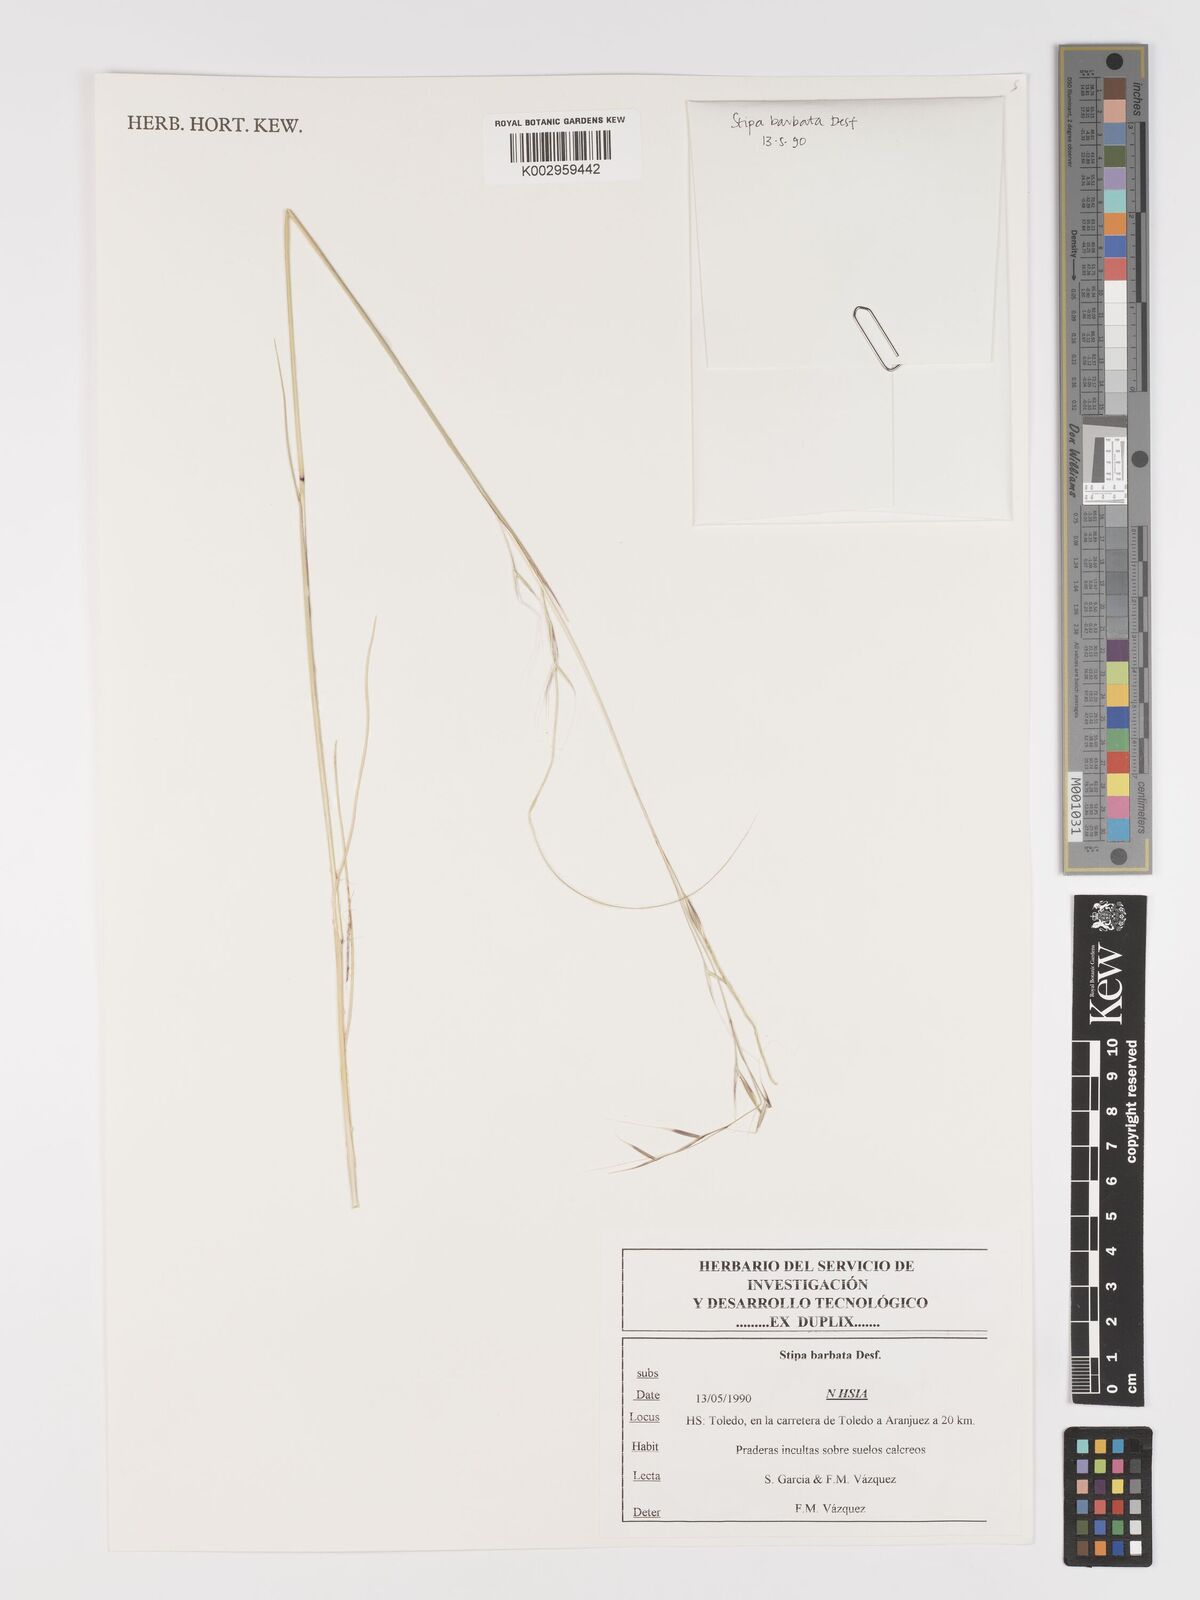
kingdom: Plantae
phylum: Tracheophyta
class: Liliopsida
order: Poales
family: Poaceae
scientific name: Poaceae
